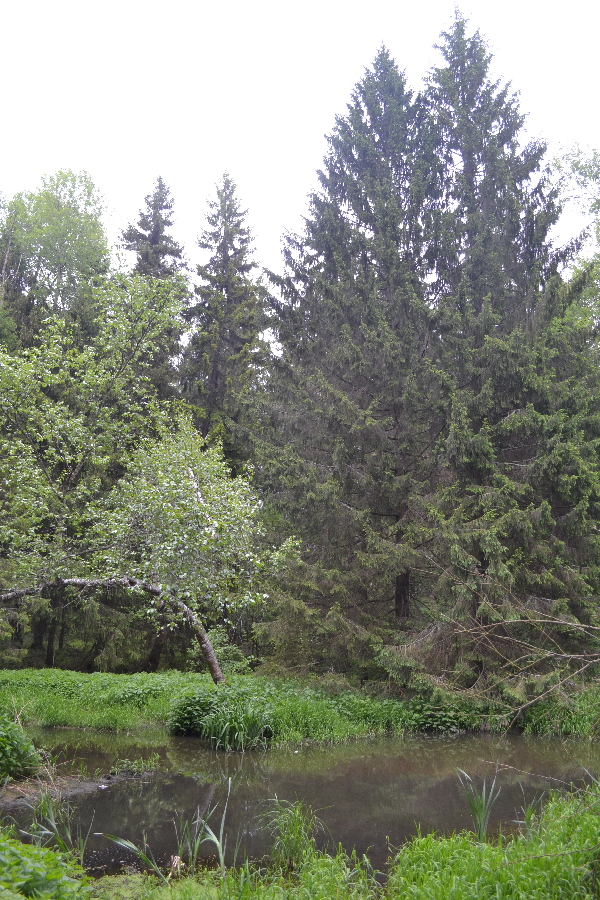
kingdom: Plantae
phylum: Tracheophyta
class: Pinopsida
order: Pinales
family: Pinaceae
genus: Picea
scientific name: Picea abies
